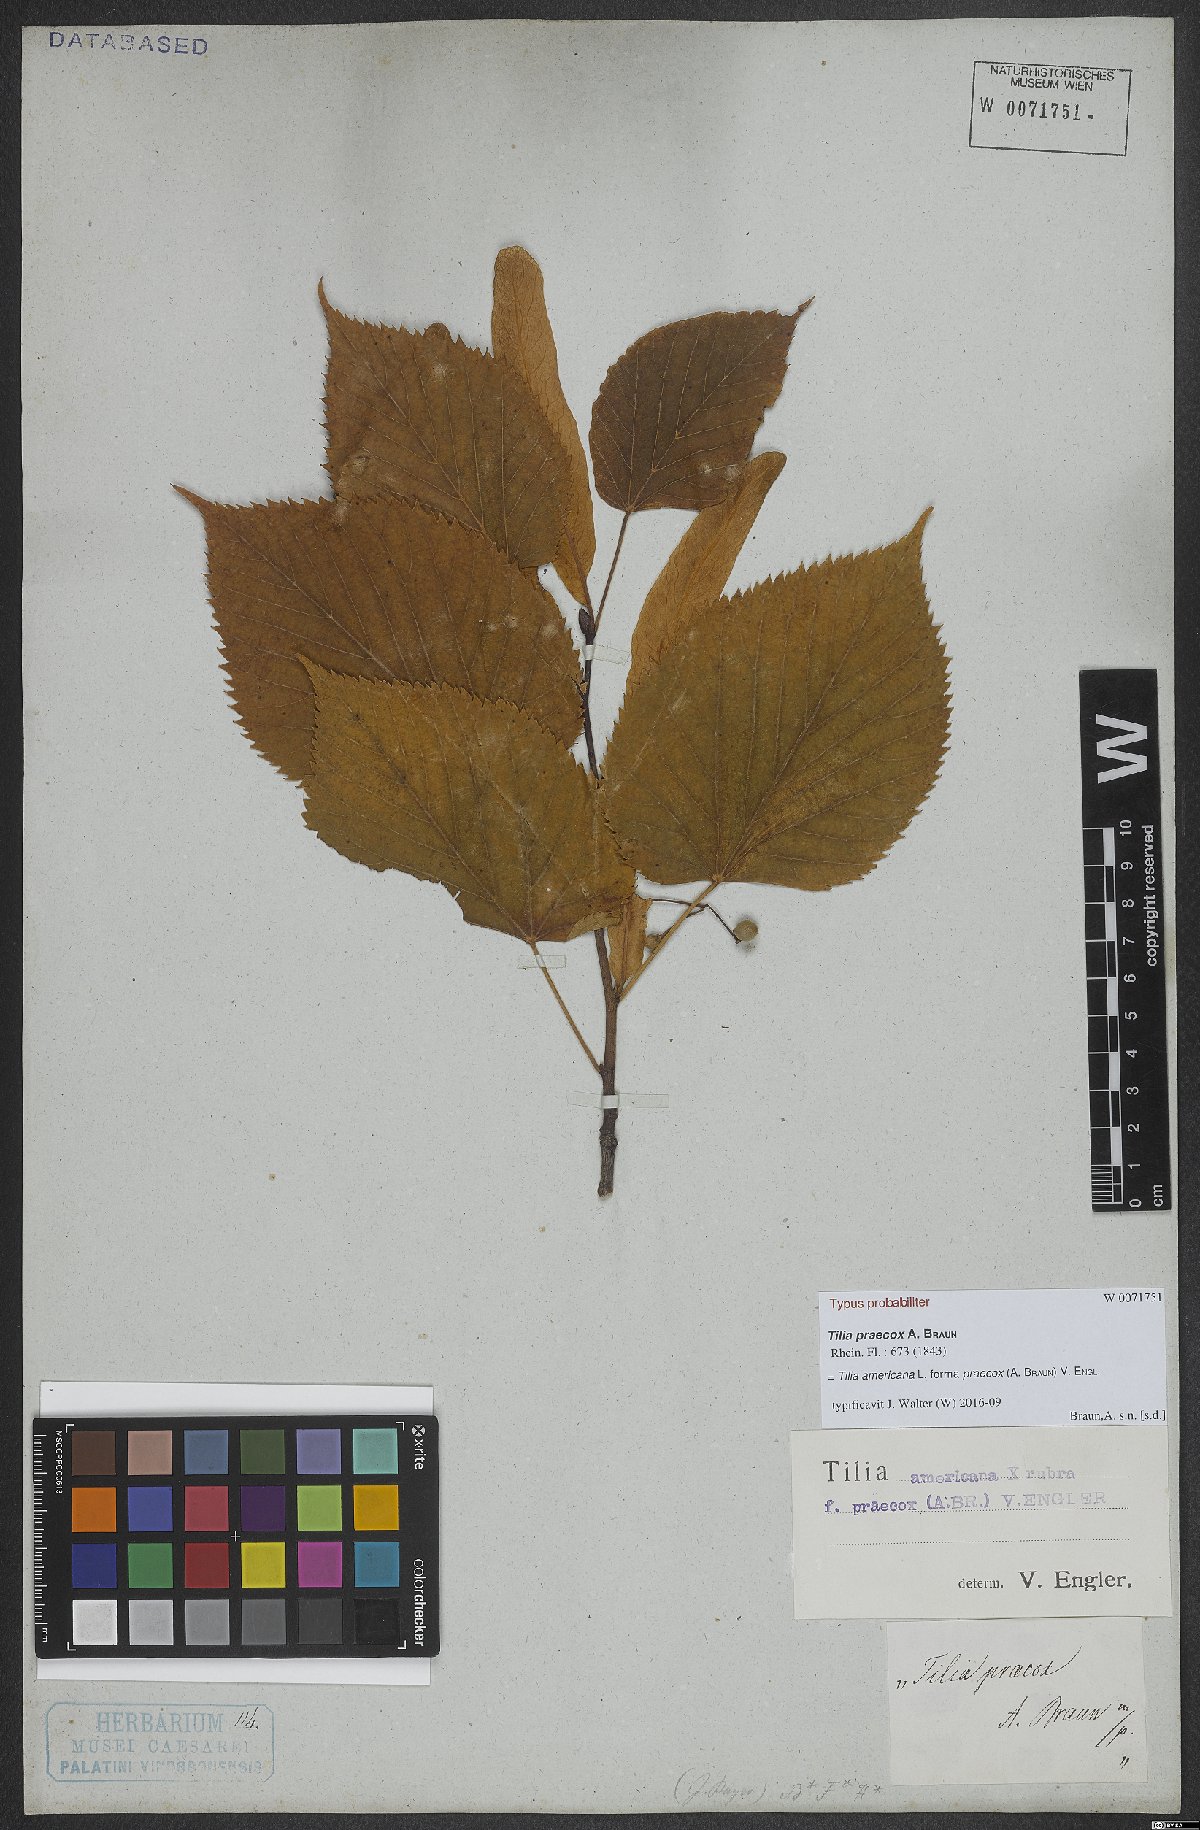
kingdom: Plantae
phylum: Tracheophyta
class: Magnoliopsida
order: Malvales
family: Malvaceae
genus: Tilia
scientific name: Tilia flaccida
